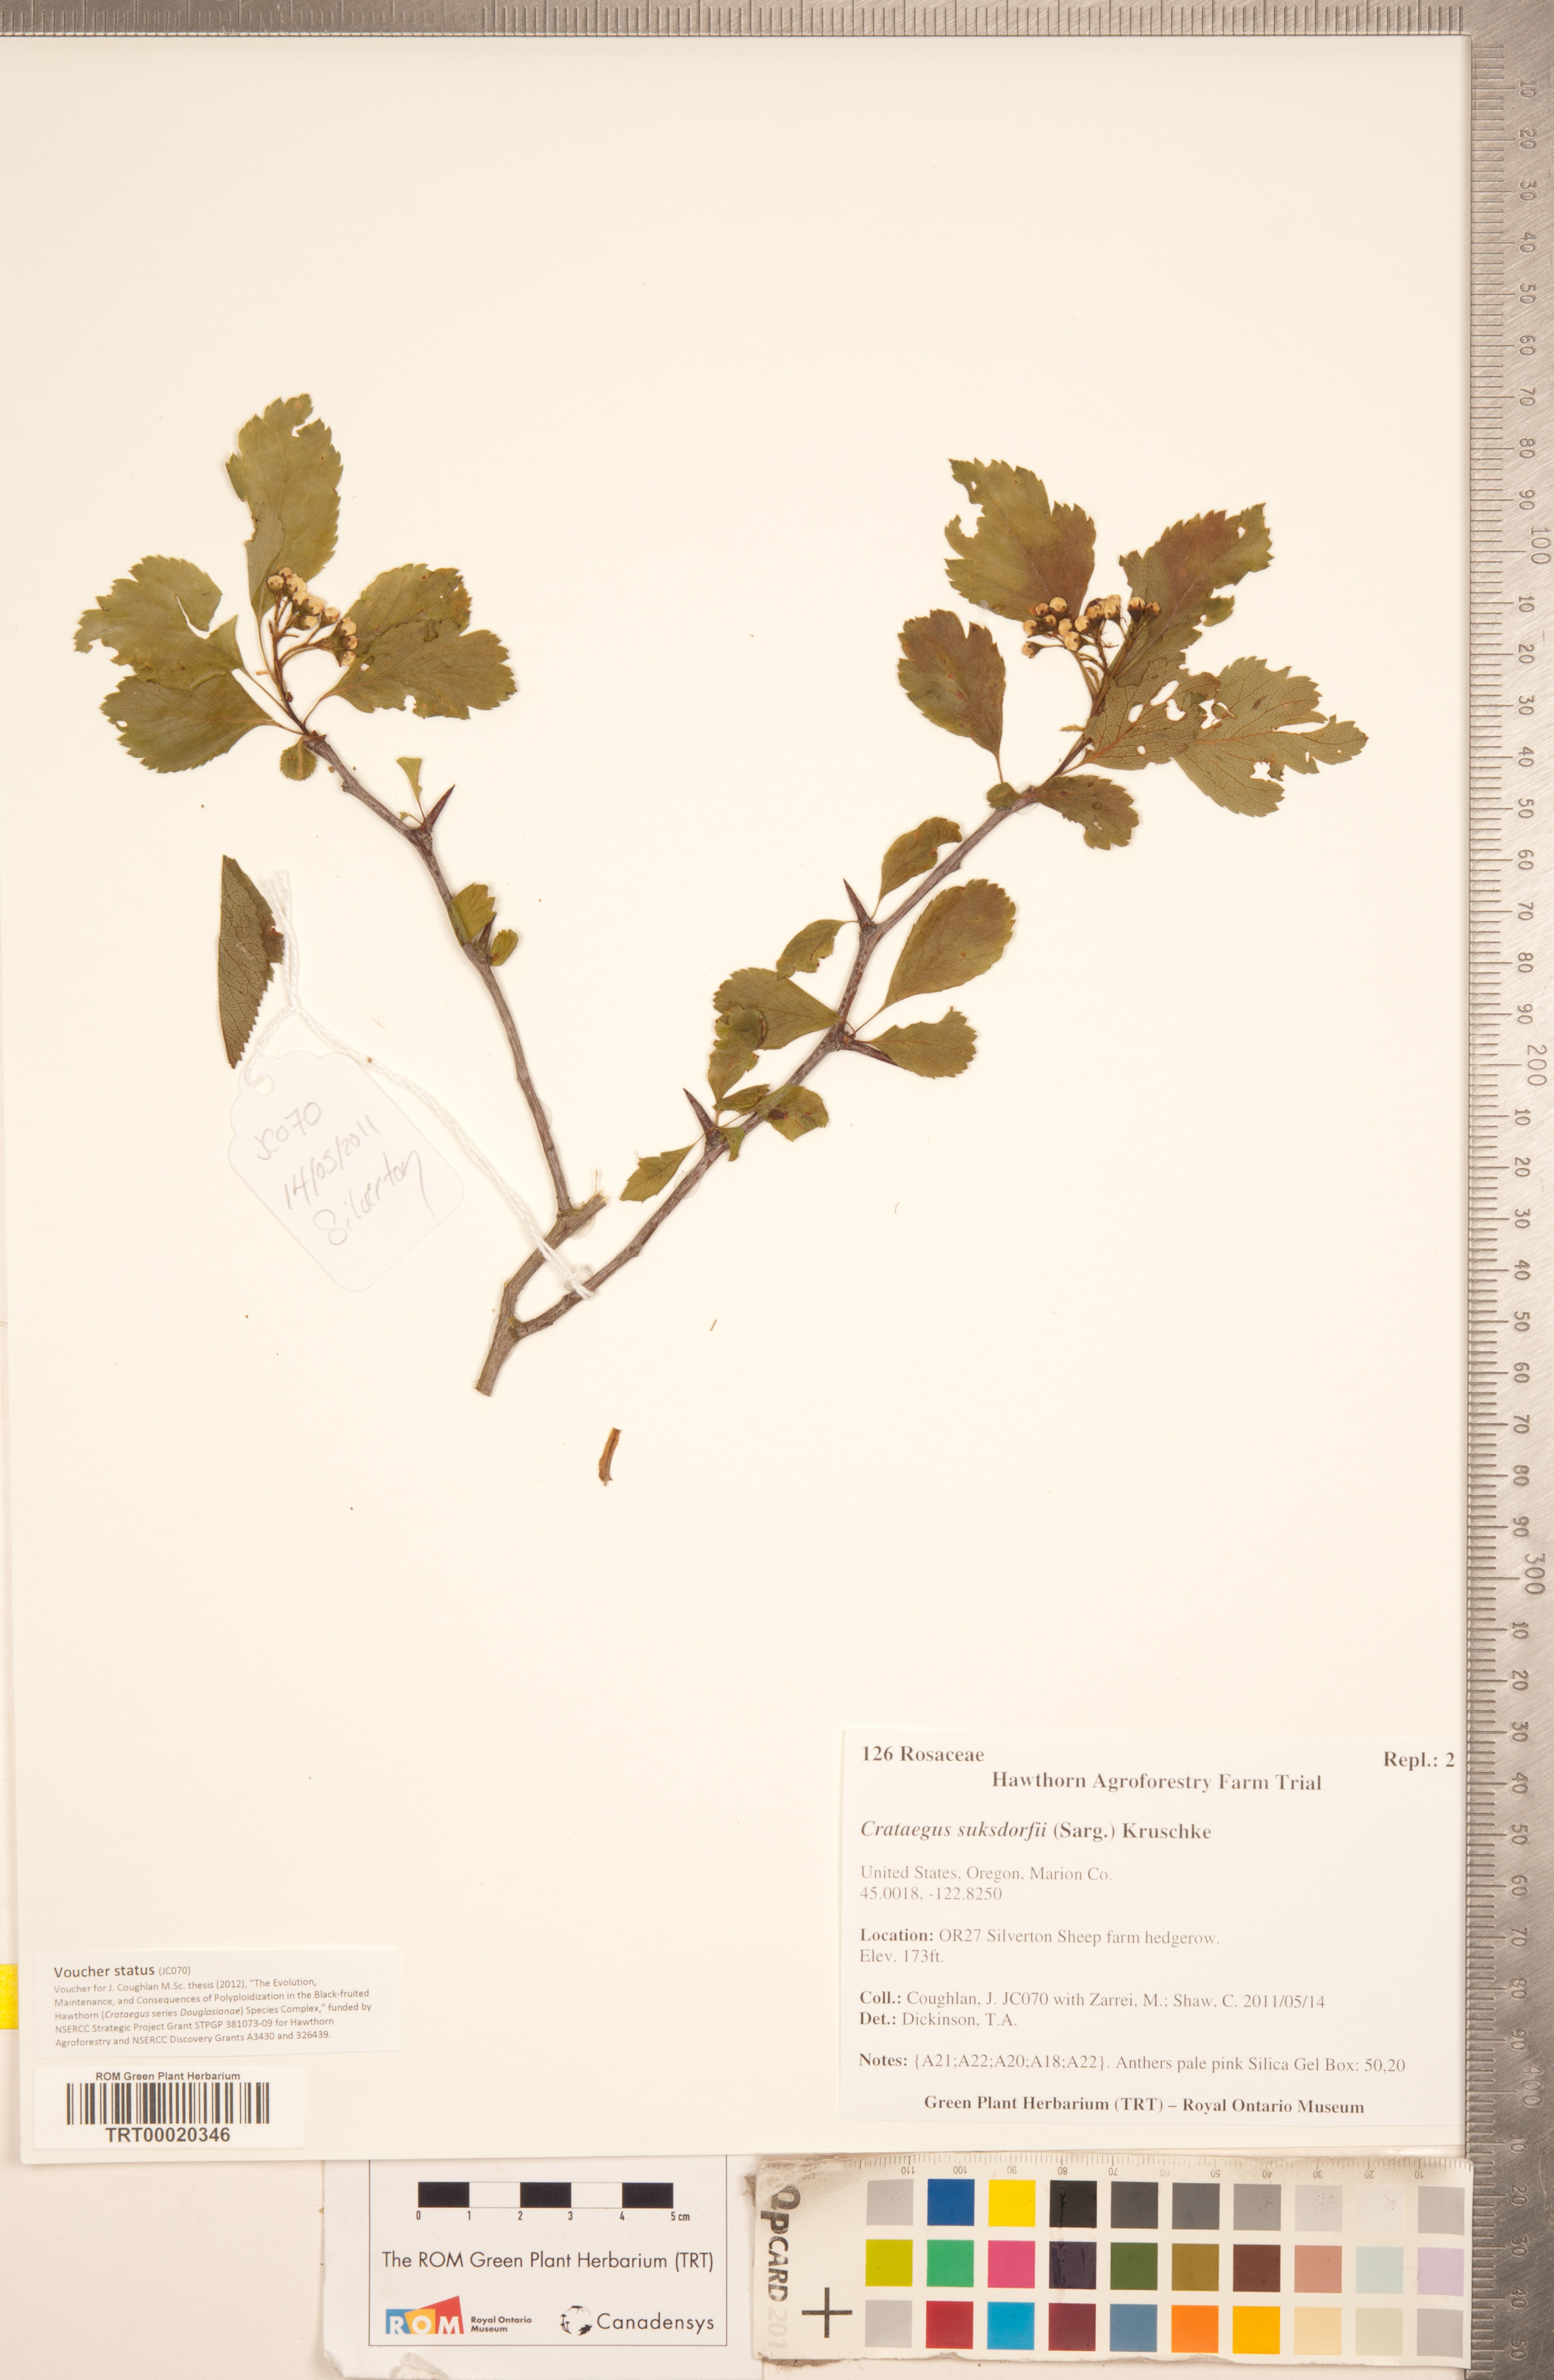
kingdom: Plantae
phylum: Tracheophyta
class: Magnoliopsida
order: Rosales
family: Rosaceae
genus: Crataegus
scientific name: Crataegus gaylussacia
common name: Huckleberry hawthorn
